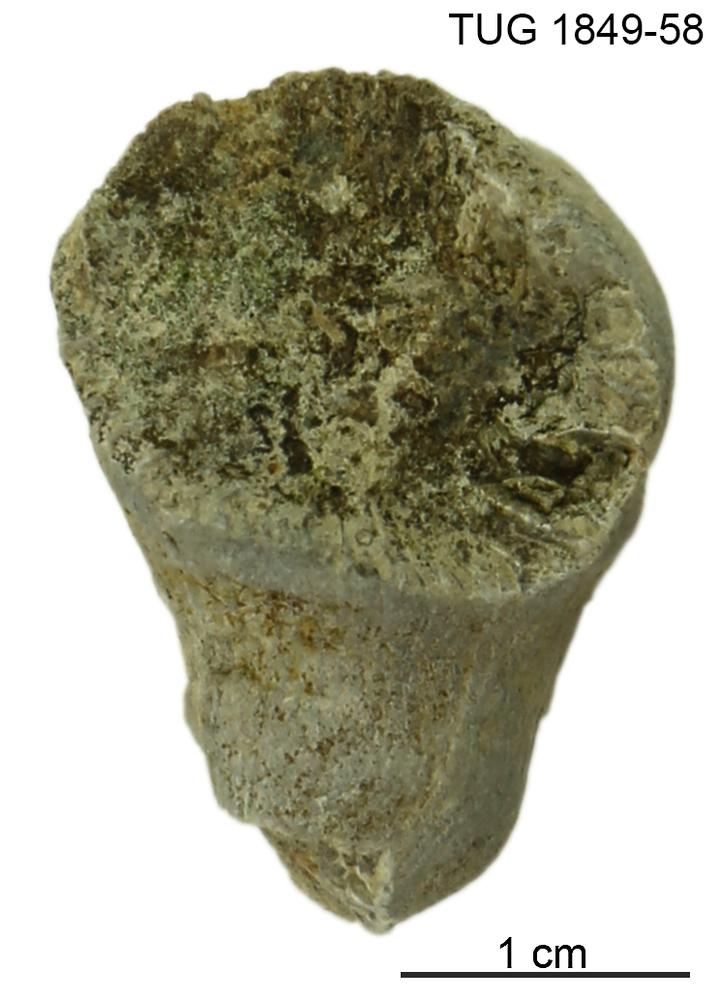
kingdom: Animalia
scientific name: Animalia
